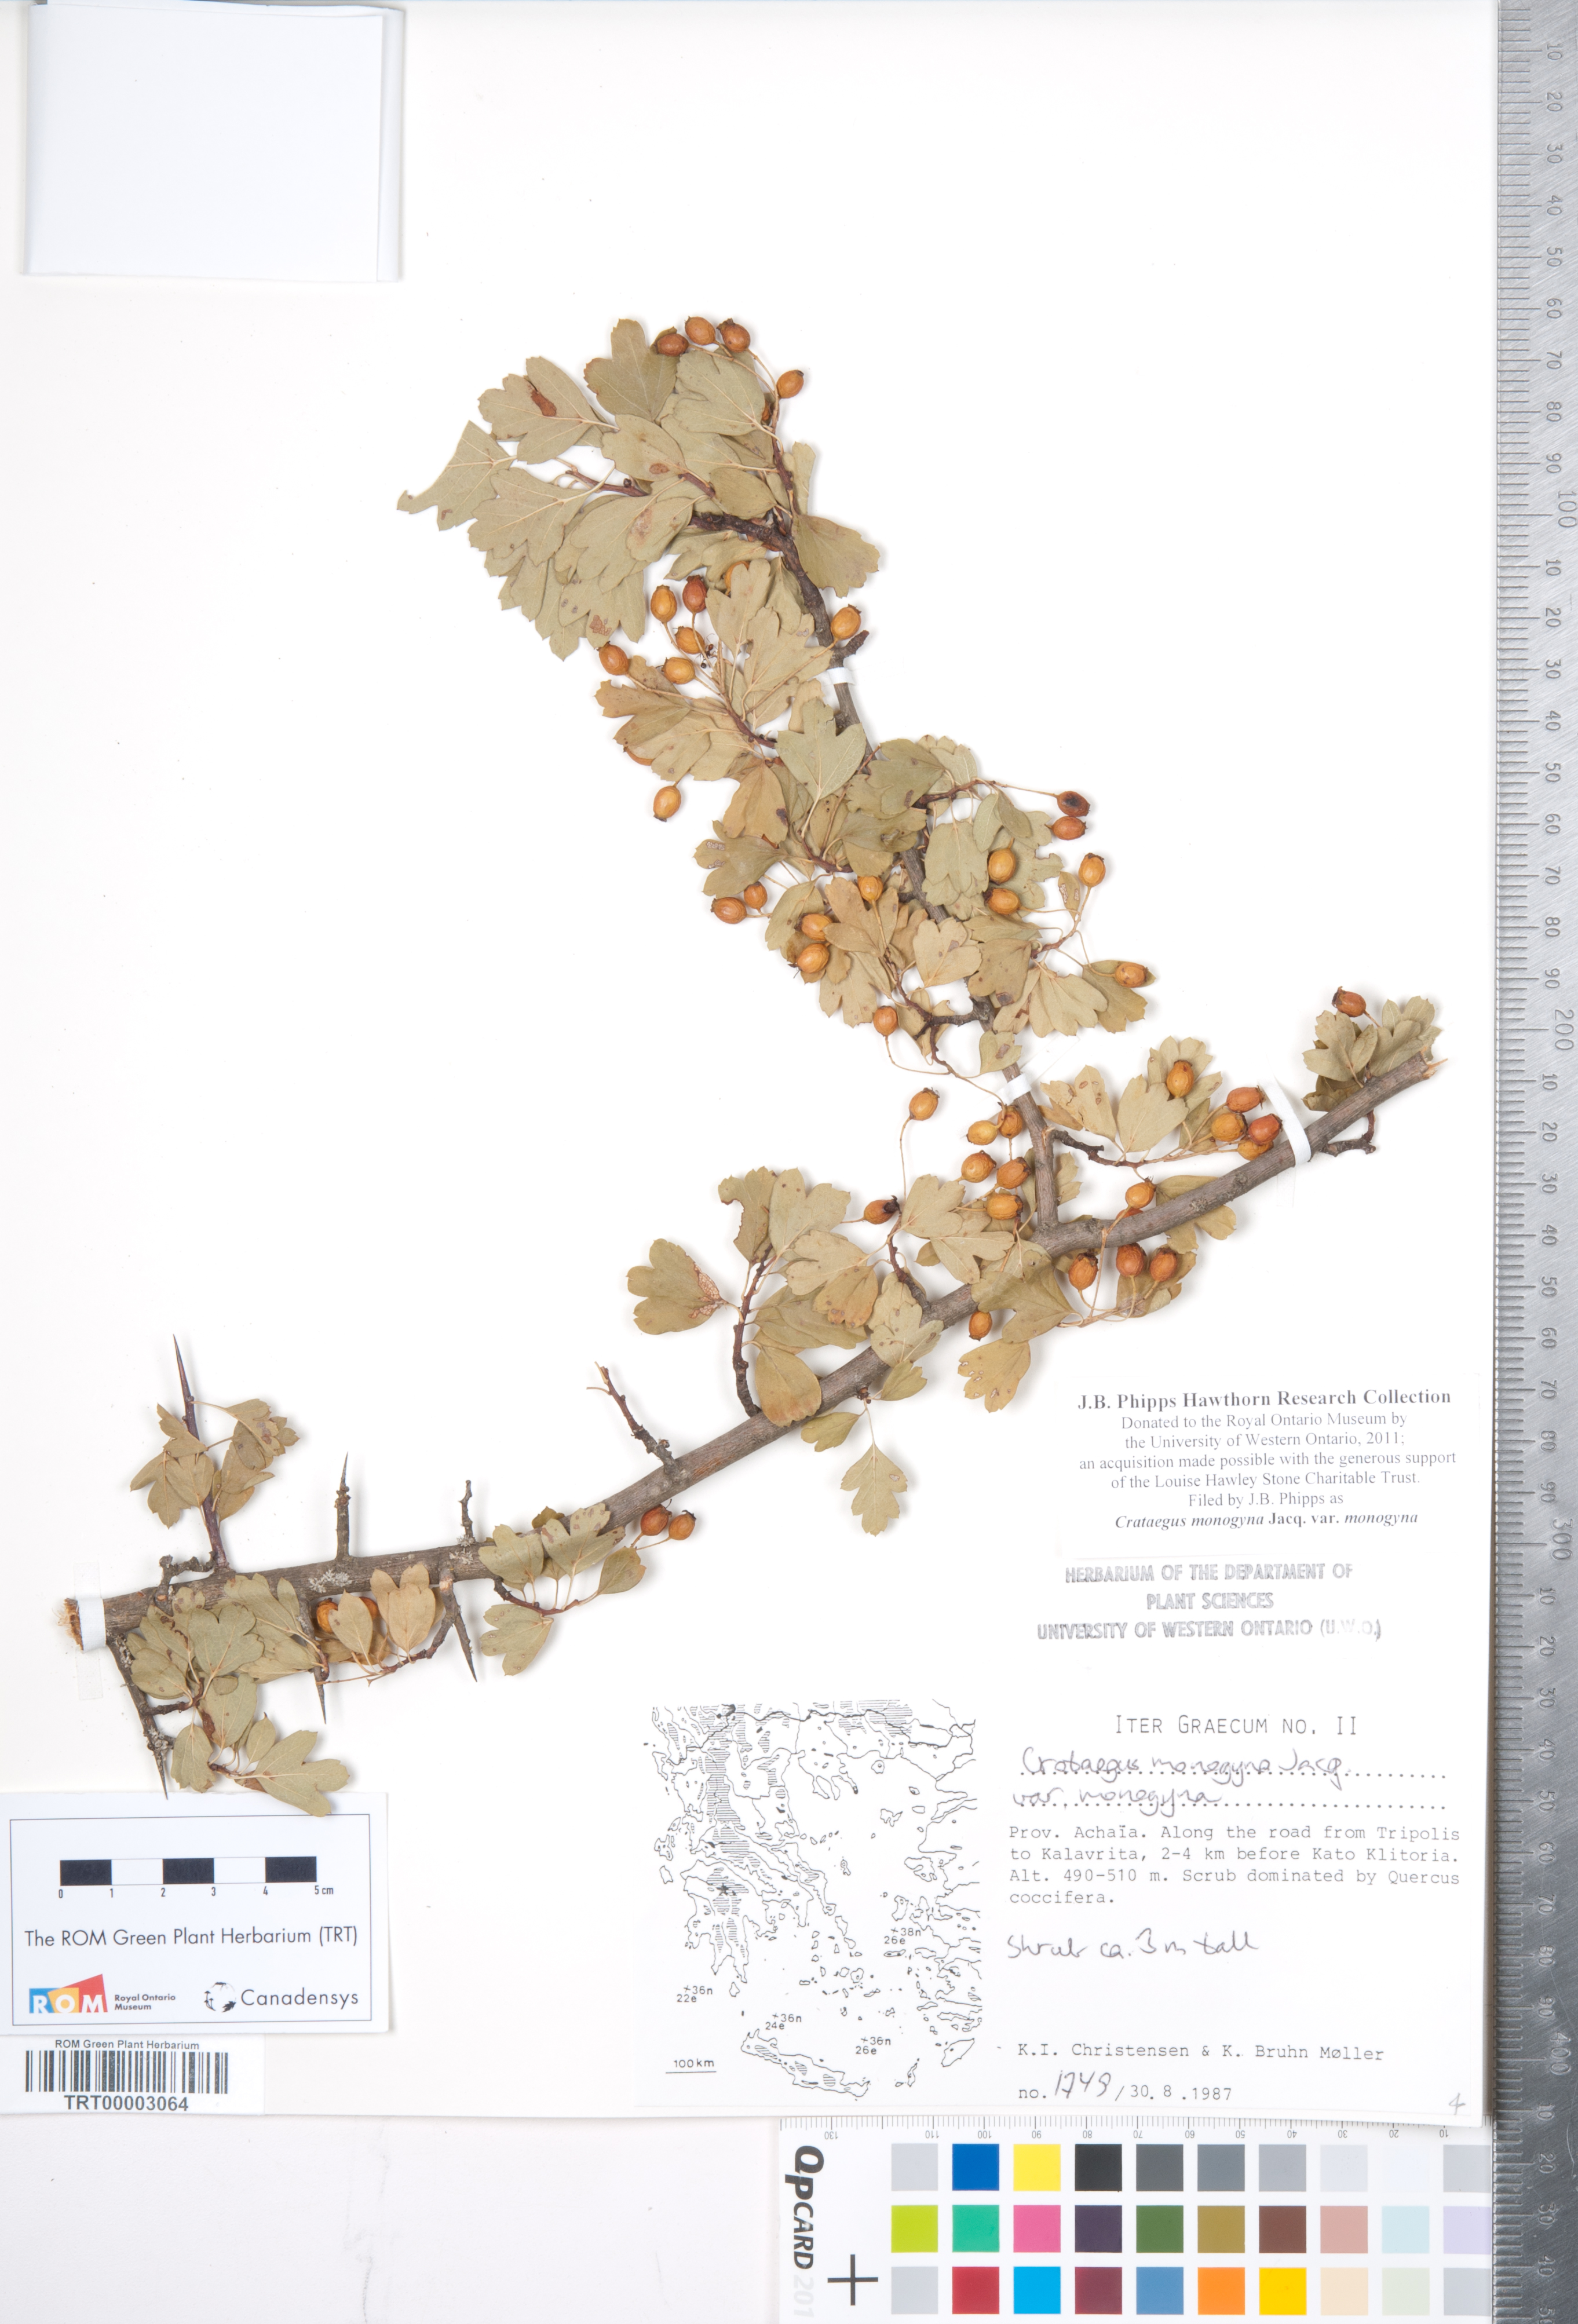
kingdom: Plantae
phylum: Tracheophyta
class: Magnoliopsida
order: Rosales
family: Rosaceae
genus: Crataegus
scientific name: Crataegus monogyna
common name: Hawthorn
